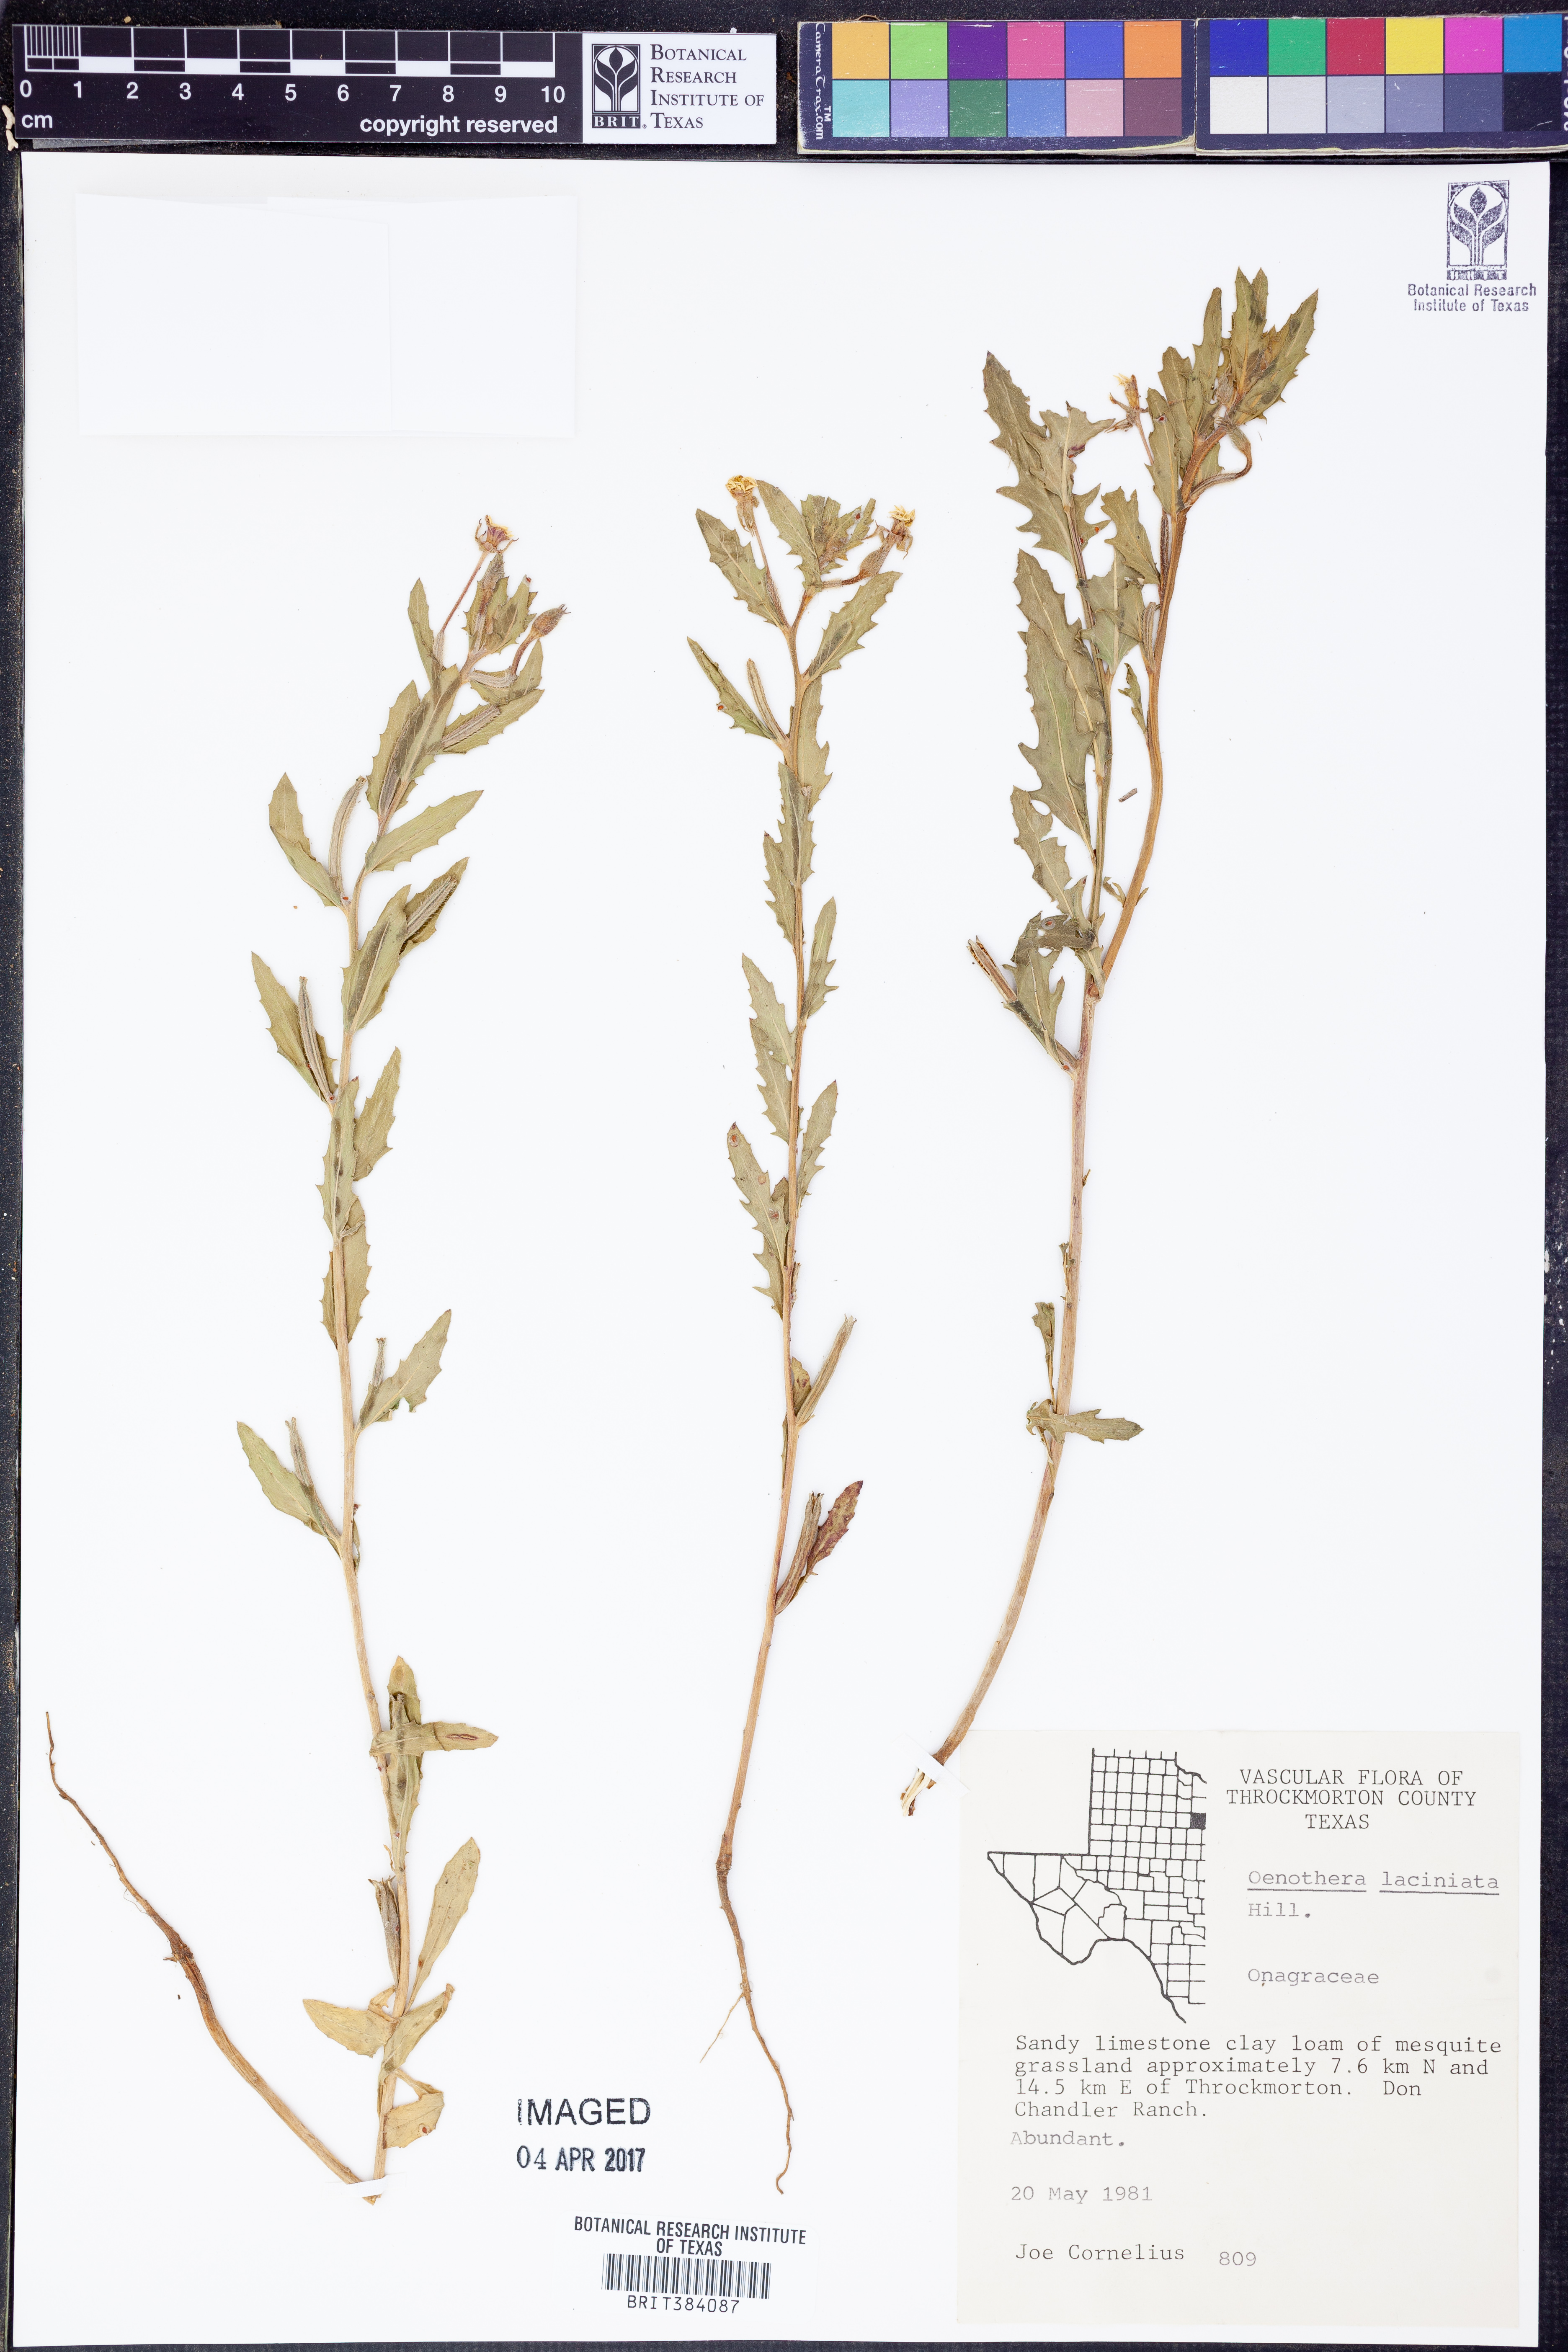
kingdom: Plantae
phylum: Tracheophyta
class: Magnoliopsida
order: Myrtales
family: Onagraceae
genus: Oenothera
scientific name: Oenothera laciniata
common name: Cut-leaved evening-primrose
